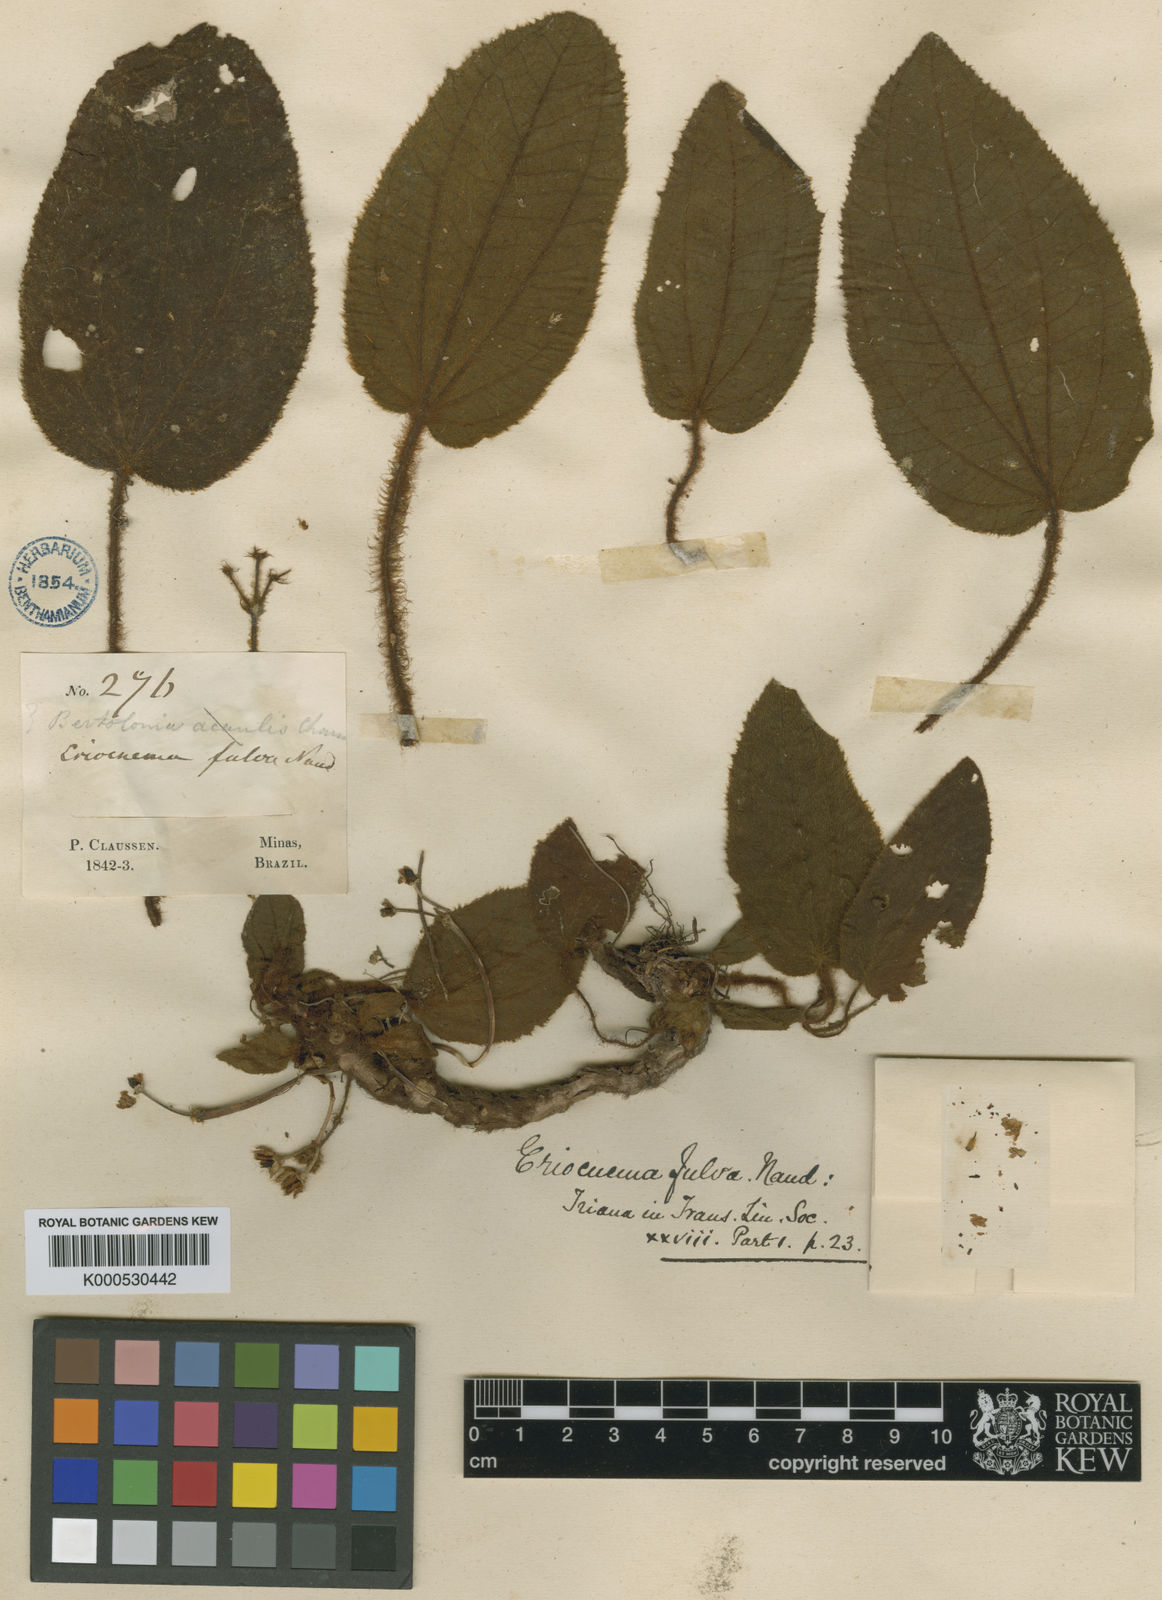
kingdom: Plantae
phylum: Tracheophyta
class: Magnoliopsida
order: Myrtales
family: Melastomataceae
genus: Eriocnema
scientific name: Eriocnema fulva
